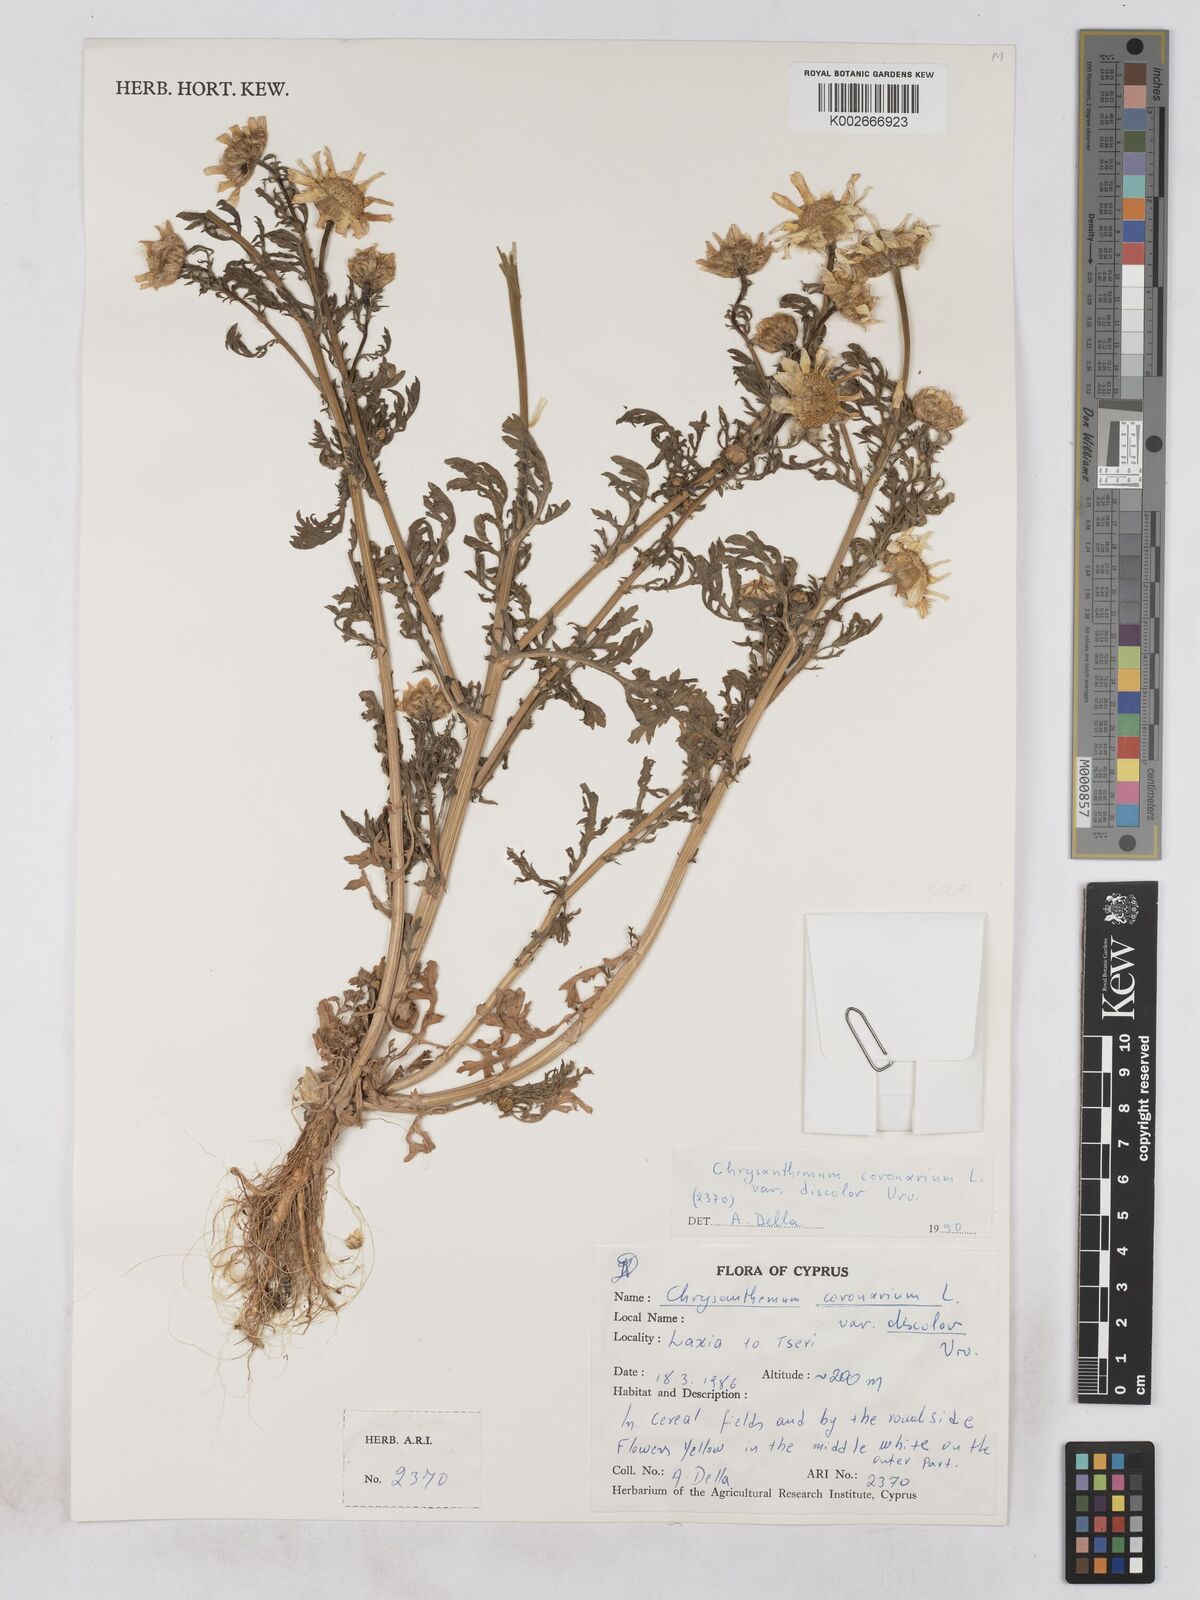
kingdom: Plantae
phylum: Tracheophyta
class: Magnoliopsida
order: Asterales
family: Asteraceae
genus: Glebionis
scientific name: Glebionis coronaria
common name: Crowndaisy
